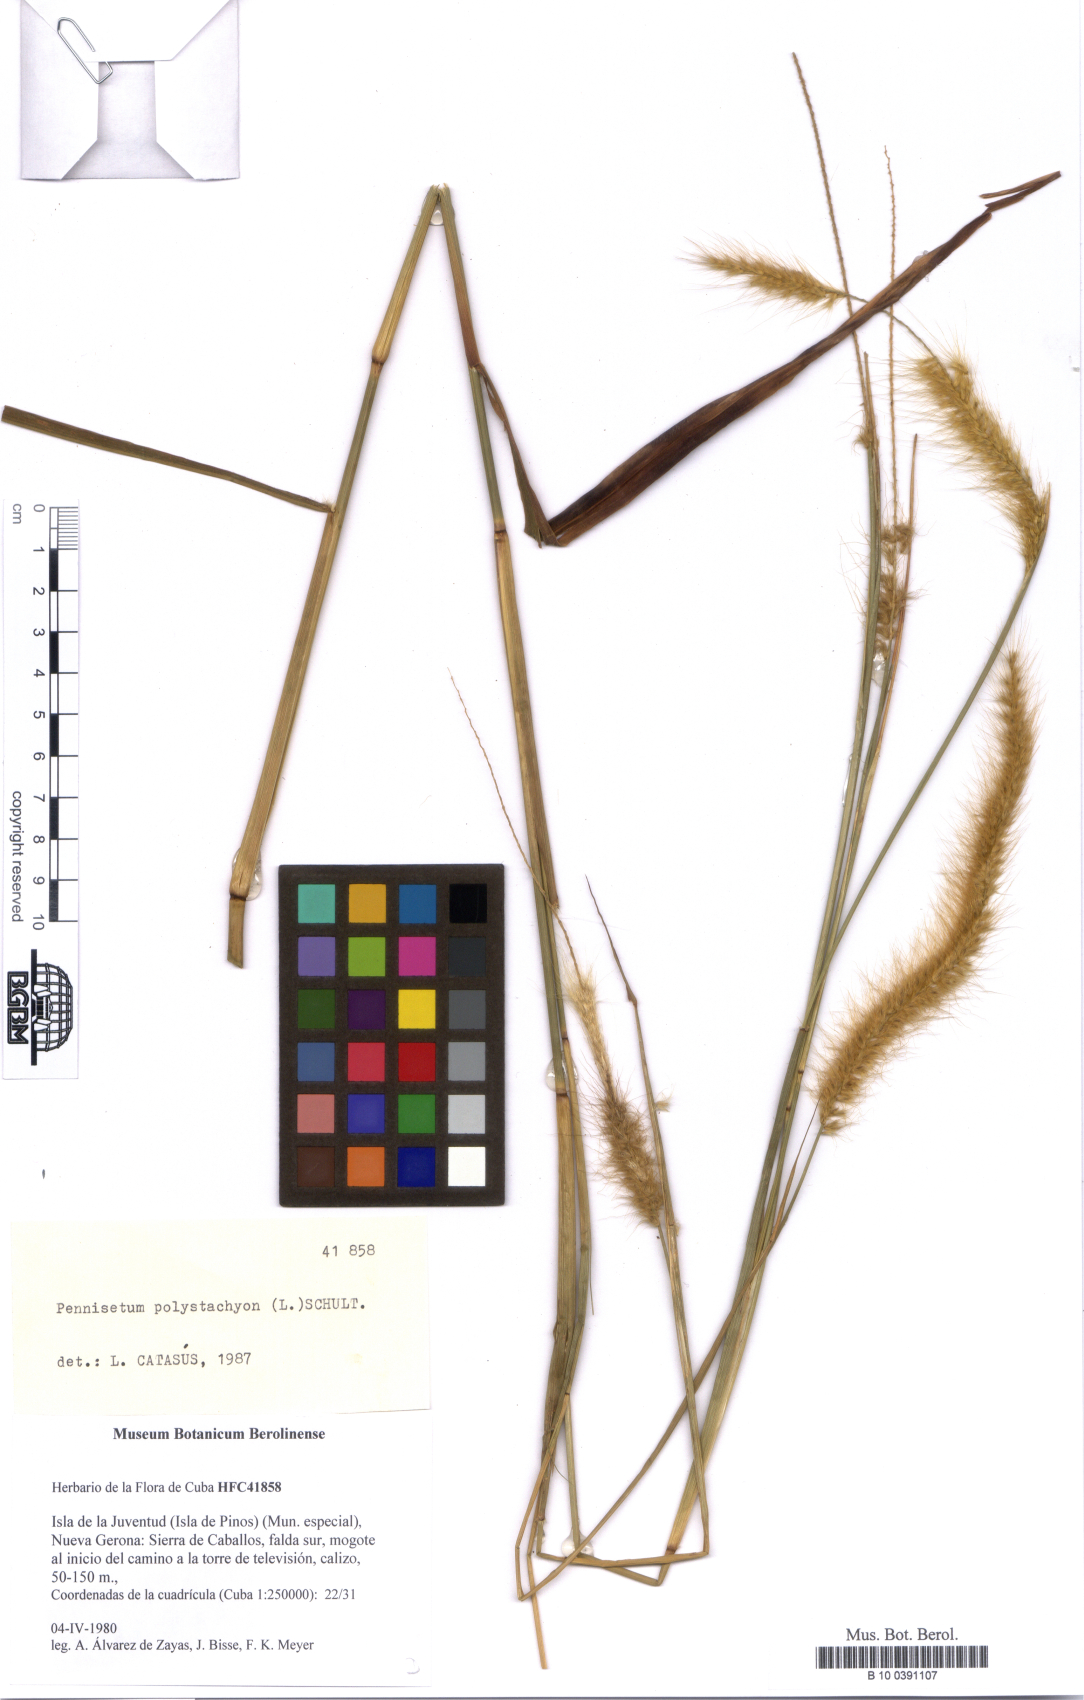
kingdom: Plantae
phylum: Tracheophyta
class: Liliopsida
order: Poales
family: Poaceae
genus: Setaria
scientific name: Setaria parviflora
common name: Knotroot bristle-grass
